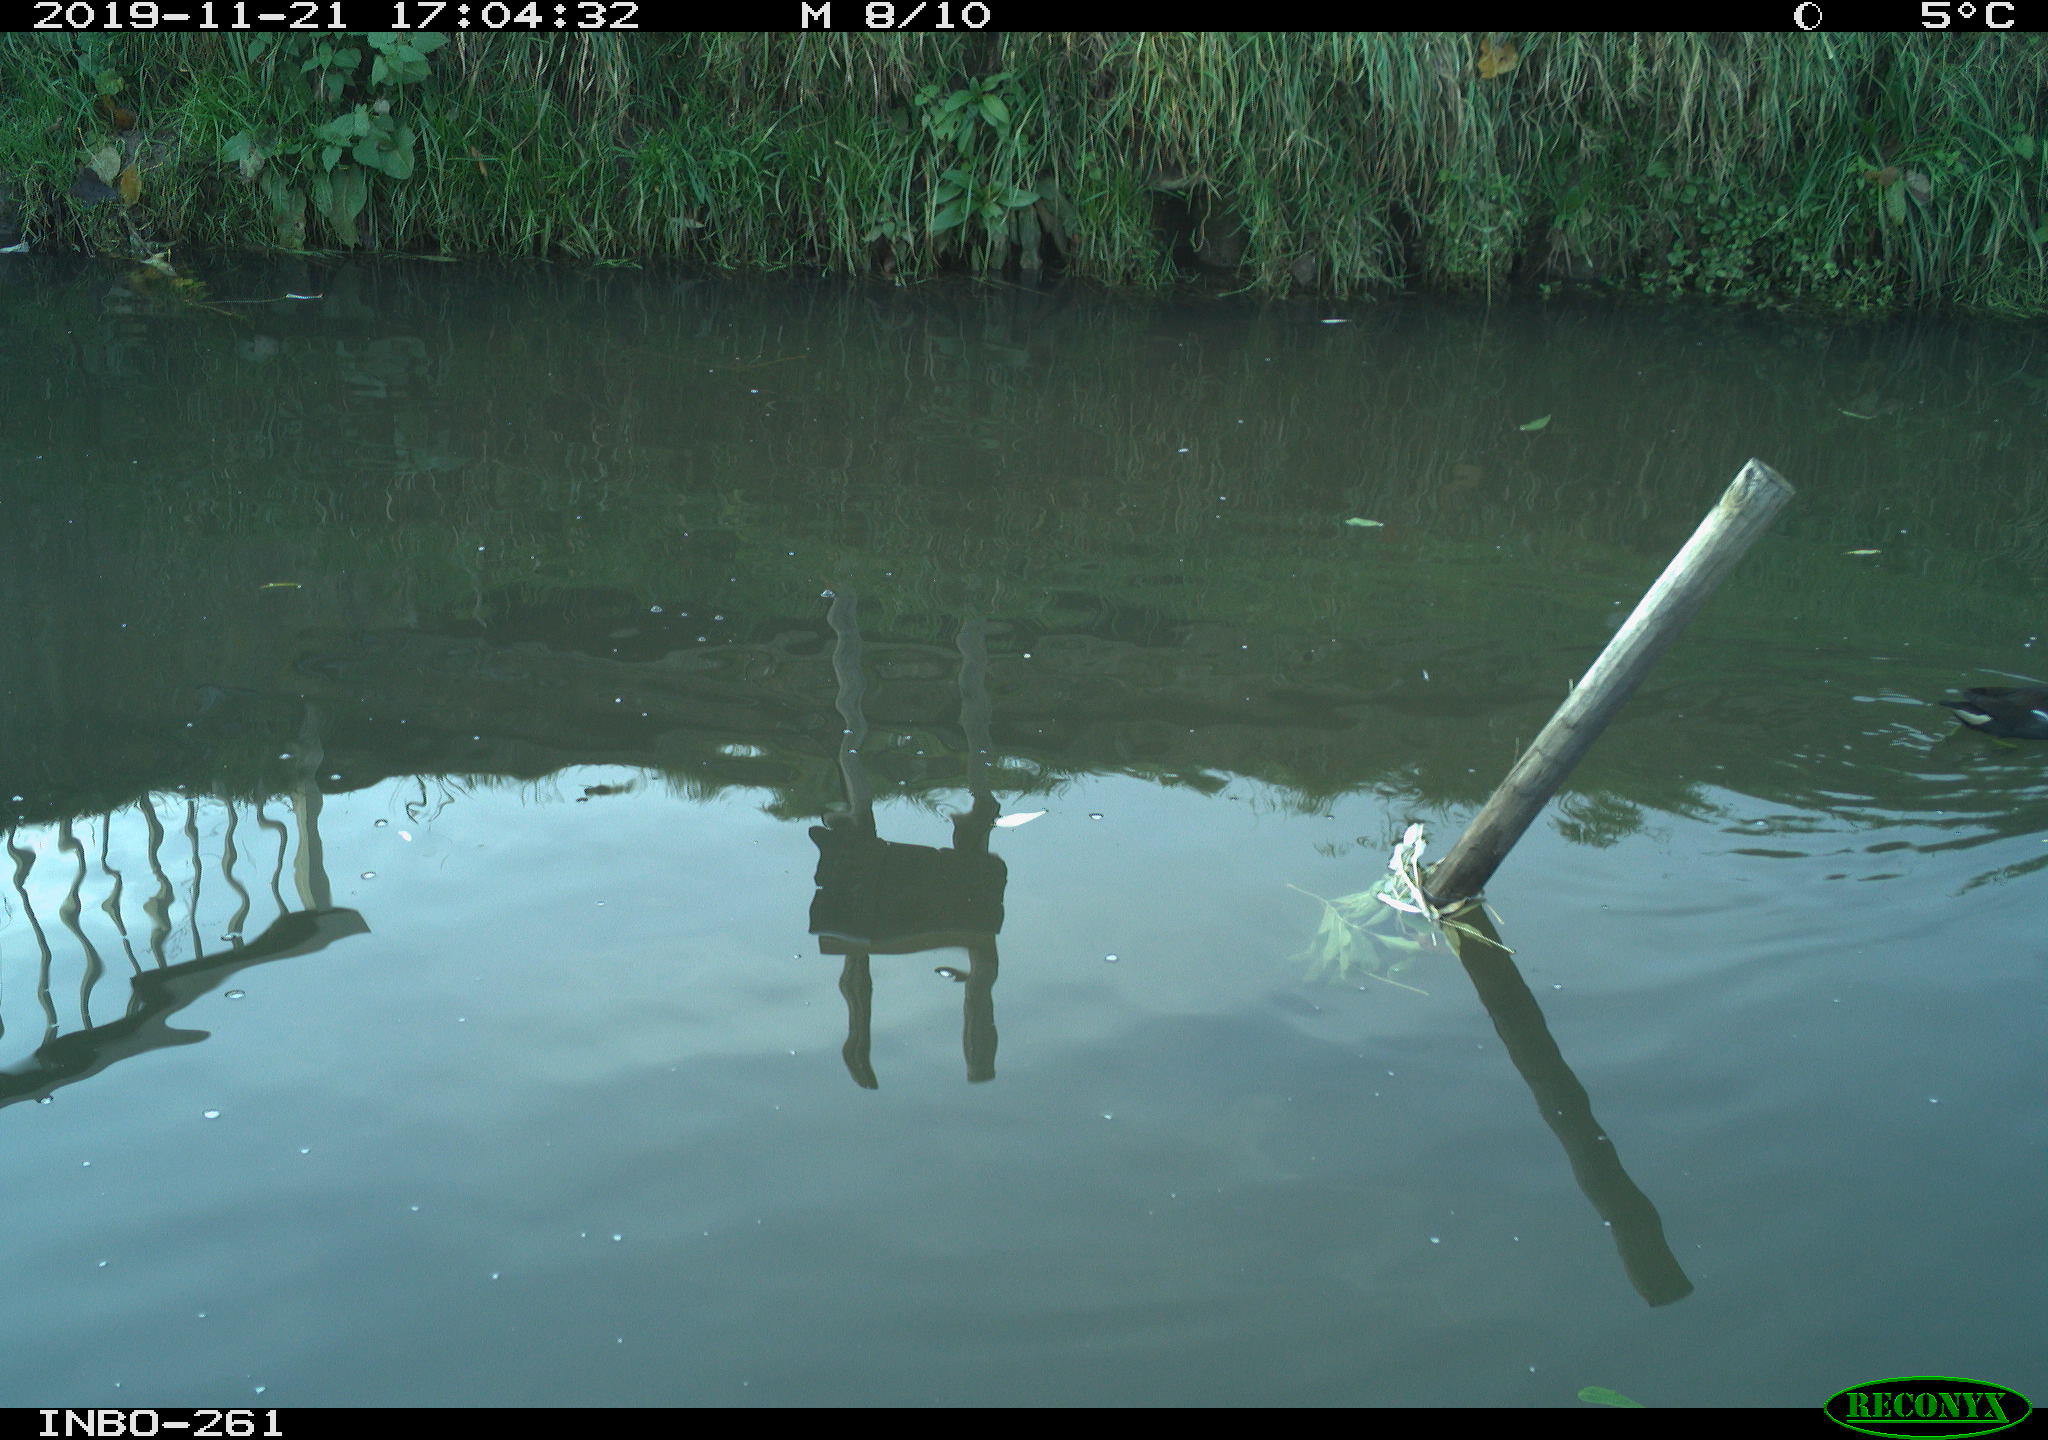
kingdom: Animalia
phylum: Chordata
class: Aves
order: Gruiformes
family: Rallidae
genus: Gallinula
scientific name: Gallinula chloropus
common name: Common moorhen
